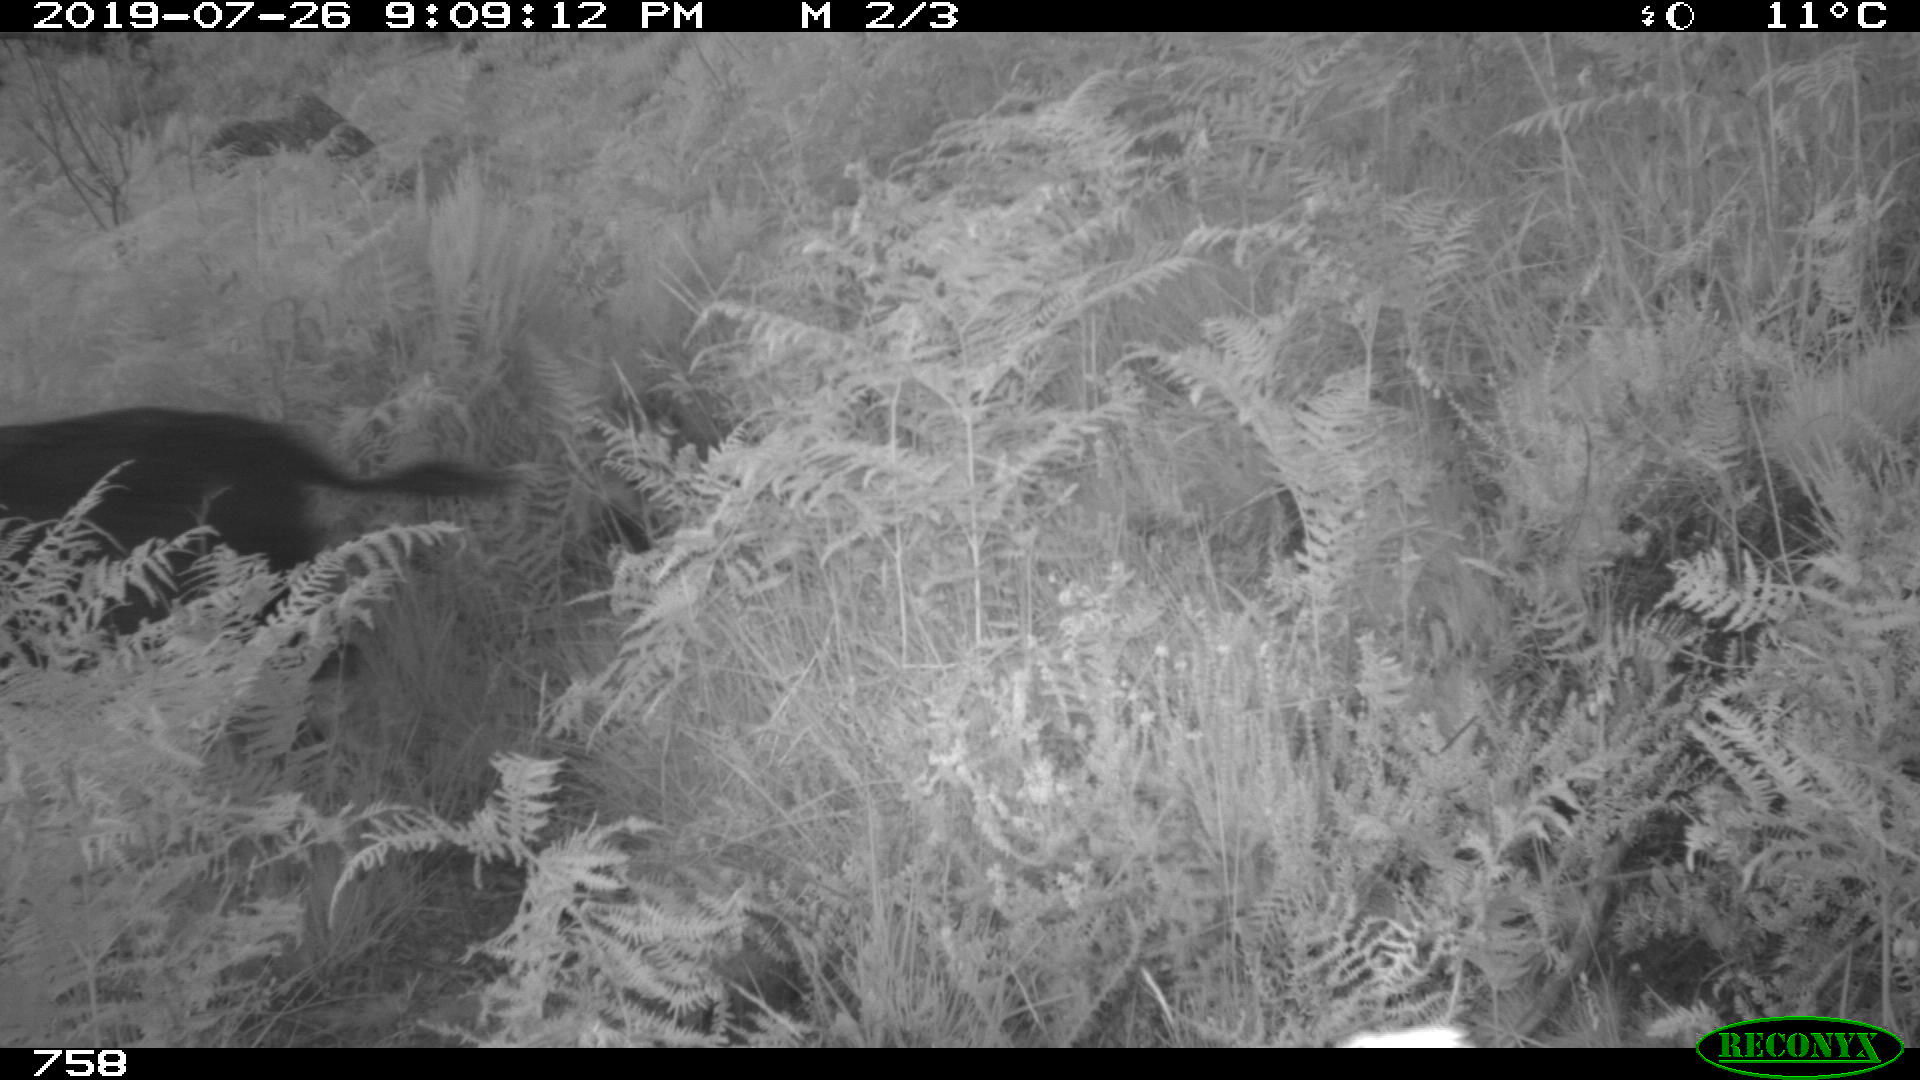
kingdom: Animalia
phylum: Chordata
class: Mammalia
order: Artiodactyla
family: Suidae
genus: Sus
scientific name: Sus scrofa
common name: Wild boar
